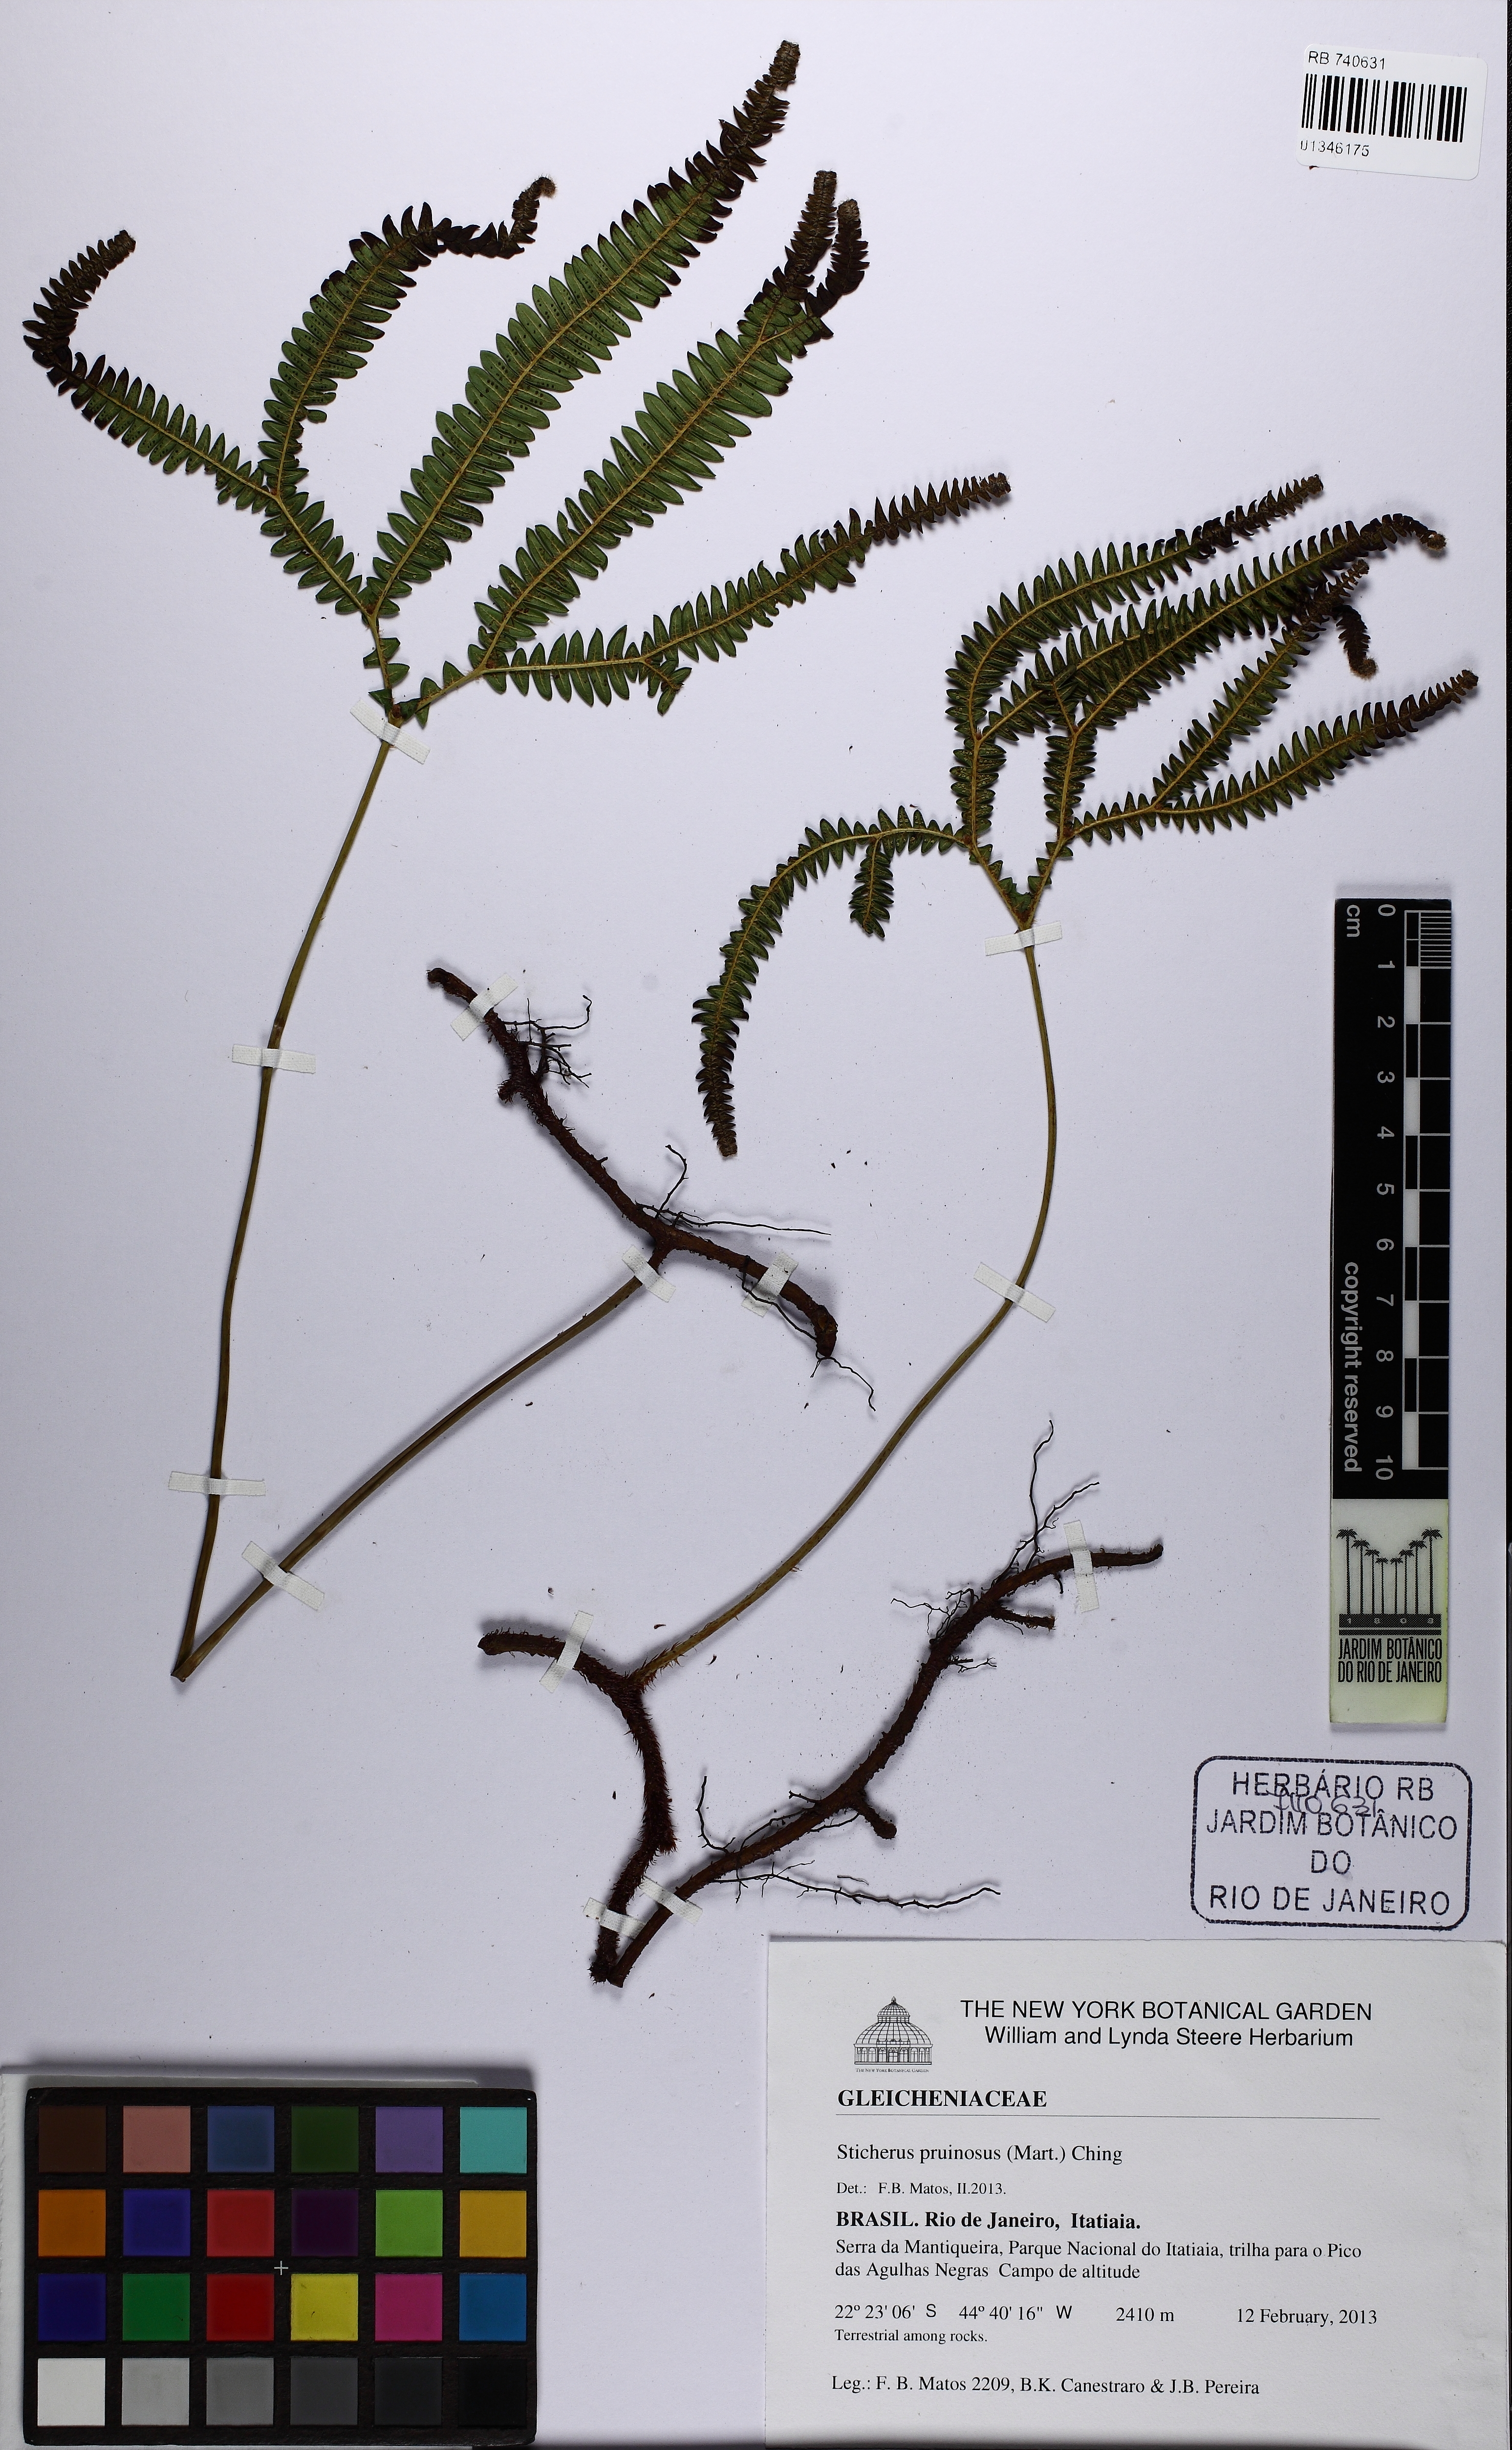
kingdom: Plantae
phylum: Tracheophyta
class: Polypodiopsida
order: Gleicheniales
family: Gleicheniaceae
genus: Sticherus
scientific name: Sticherus pruinosus
